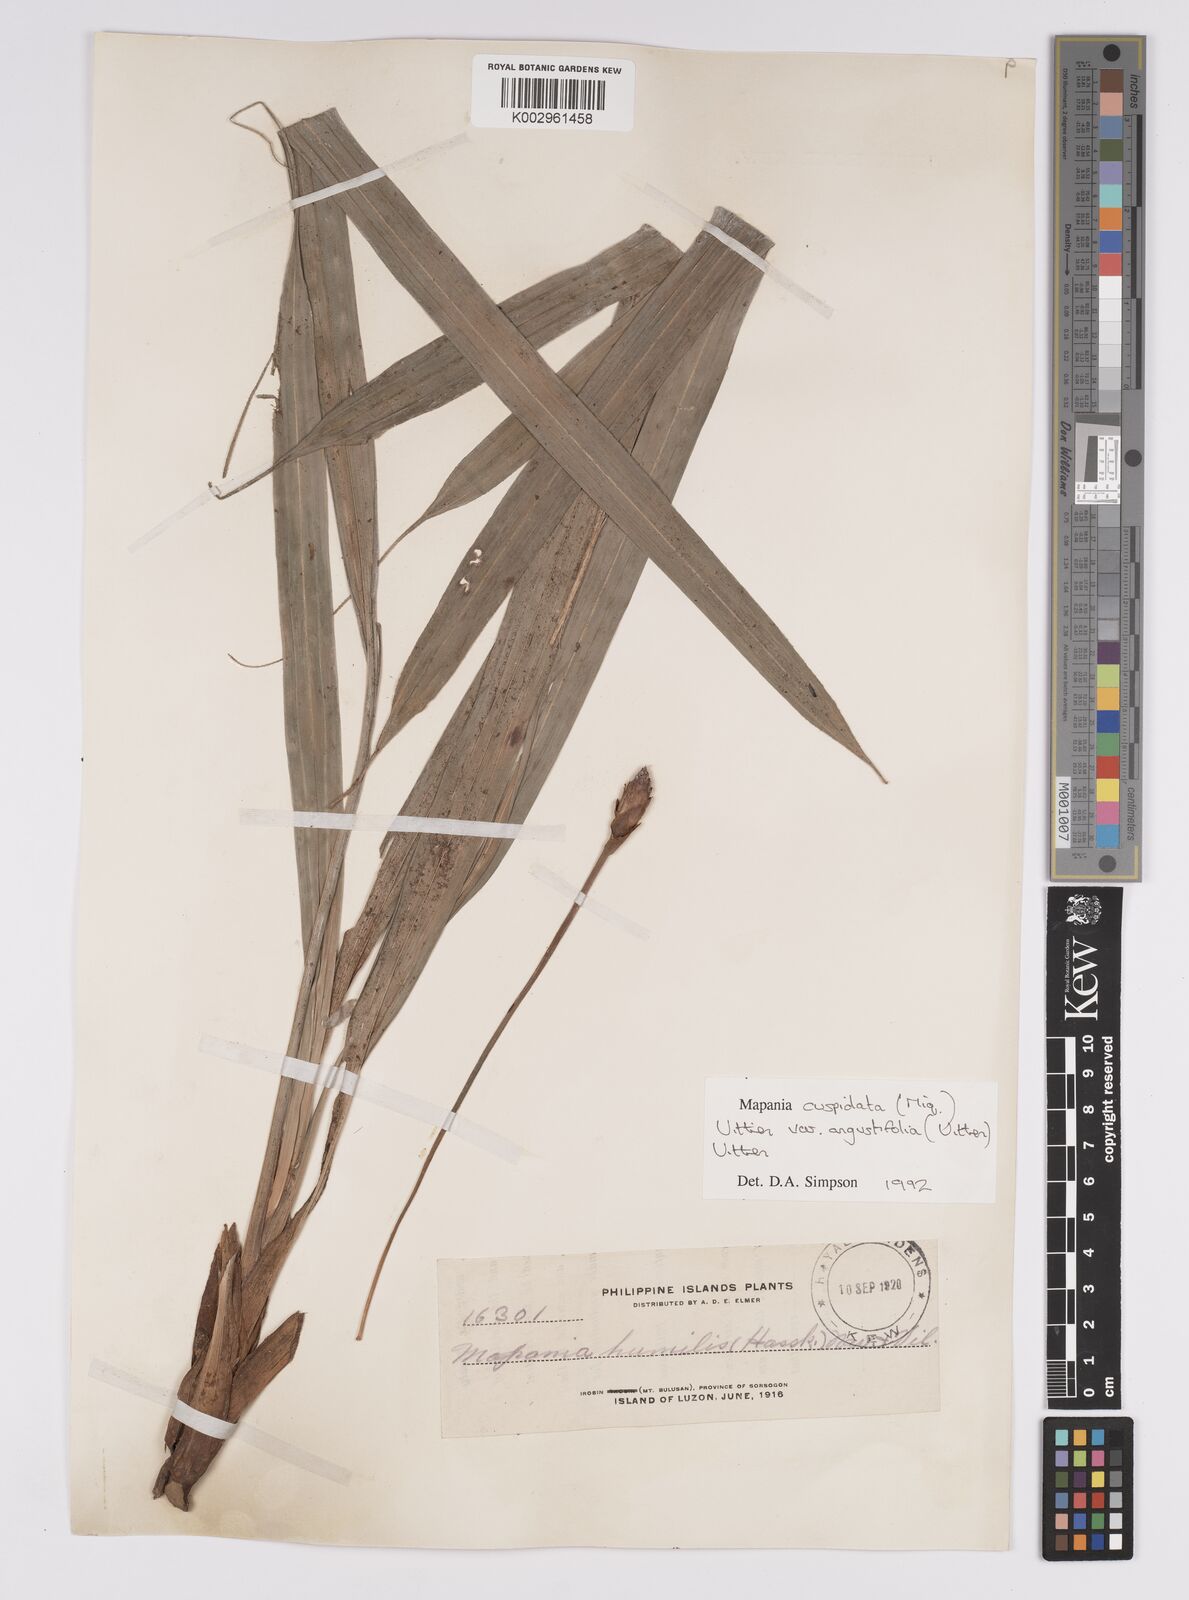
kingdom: Plantae
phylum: Tracheophyta
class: Liliopsida
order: Poales
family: Cyperaceae
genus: Mapania
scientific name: Mapania cuspidata
